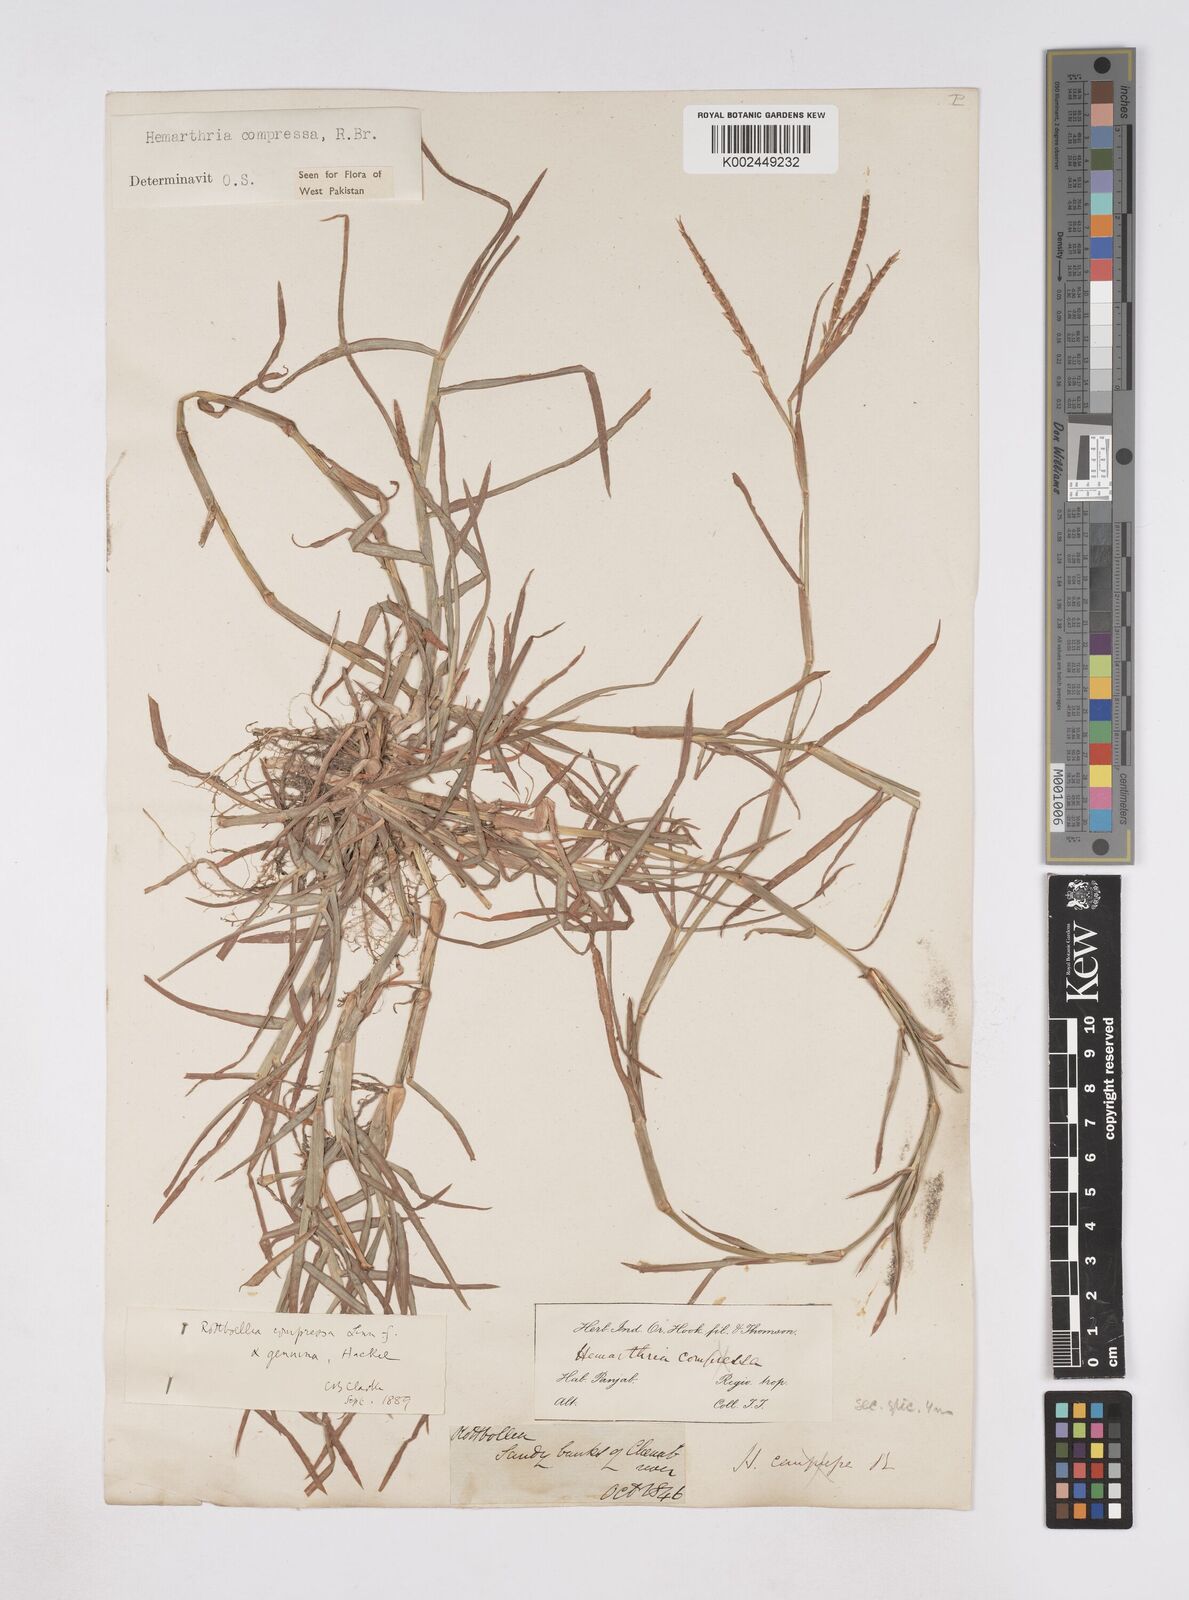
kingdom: Plantae
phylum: Tracheophyta
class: Liliopsida
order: Poales
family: Poaceae
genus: Hemarthria
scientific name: Hemarthria compressa
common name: Whip grass
